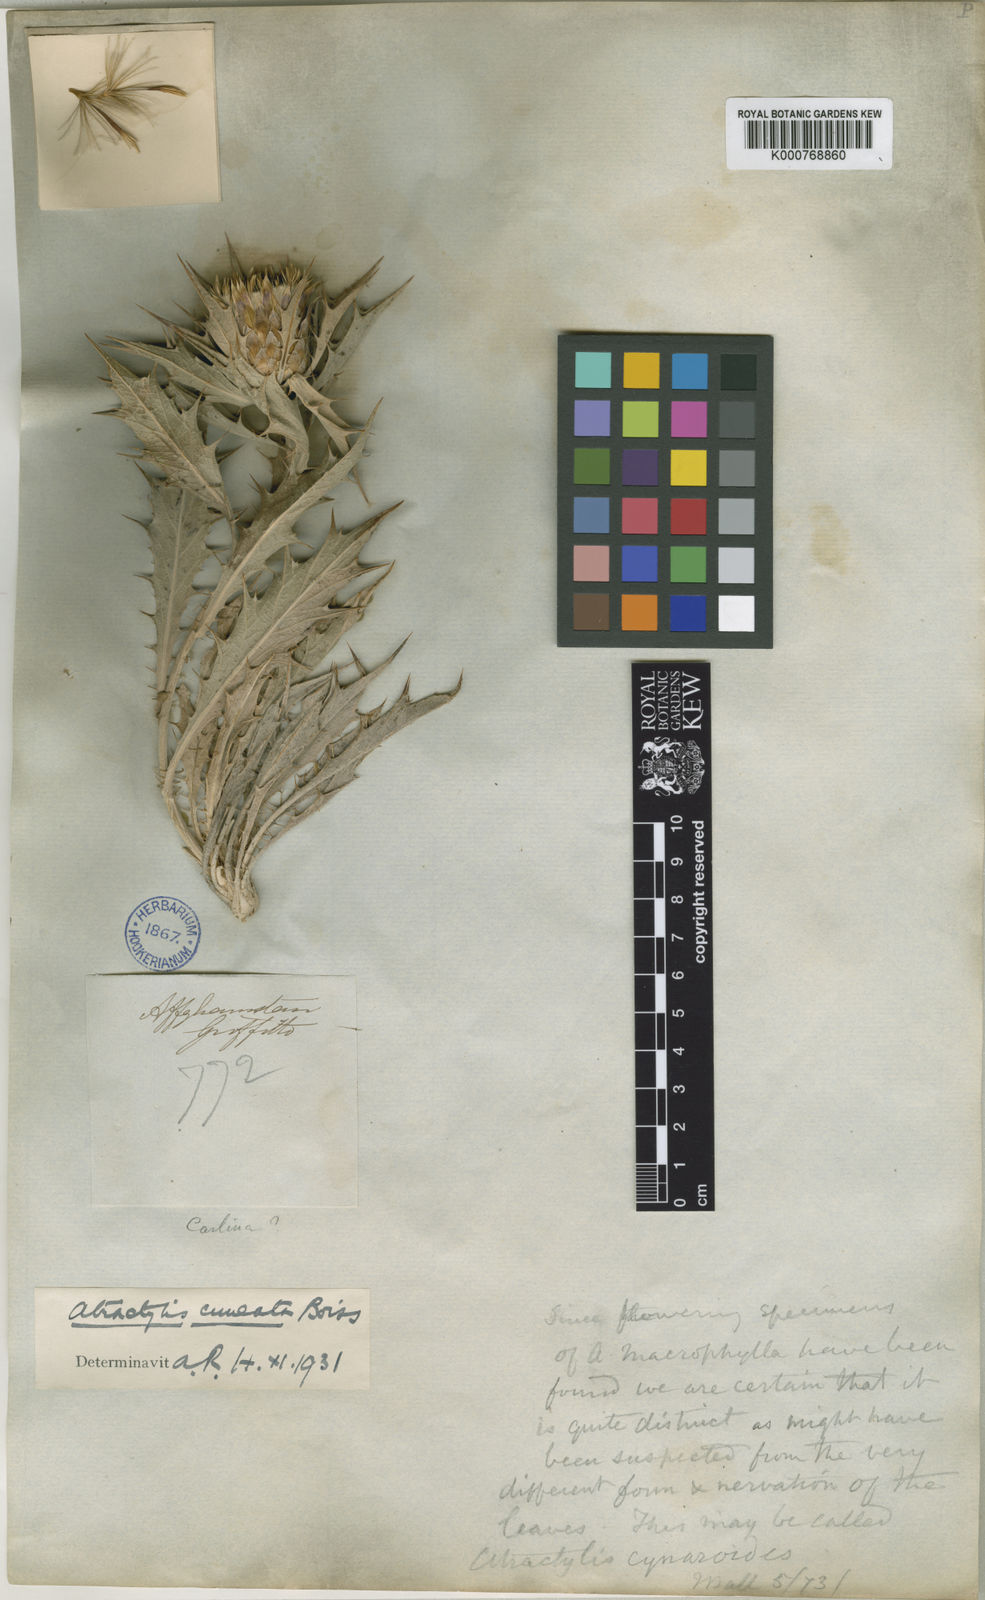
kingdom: Plantae
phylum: Tracheophyta
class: Magnoliopsida
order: Asterales
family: Asteraceae
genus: Chamaeleon
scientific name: Chamaeleon cuneatus
